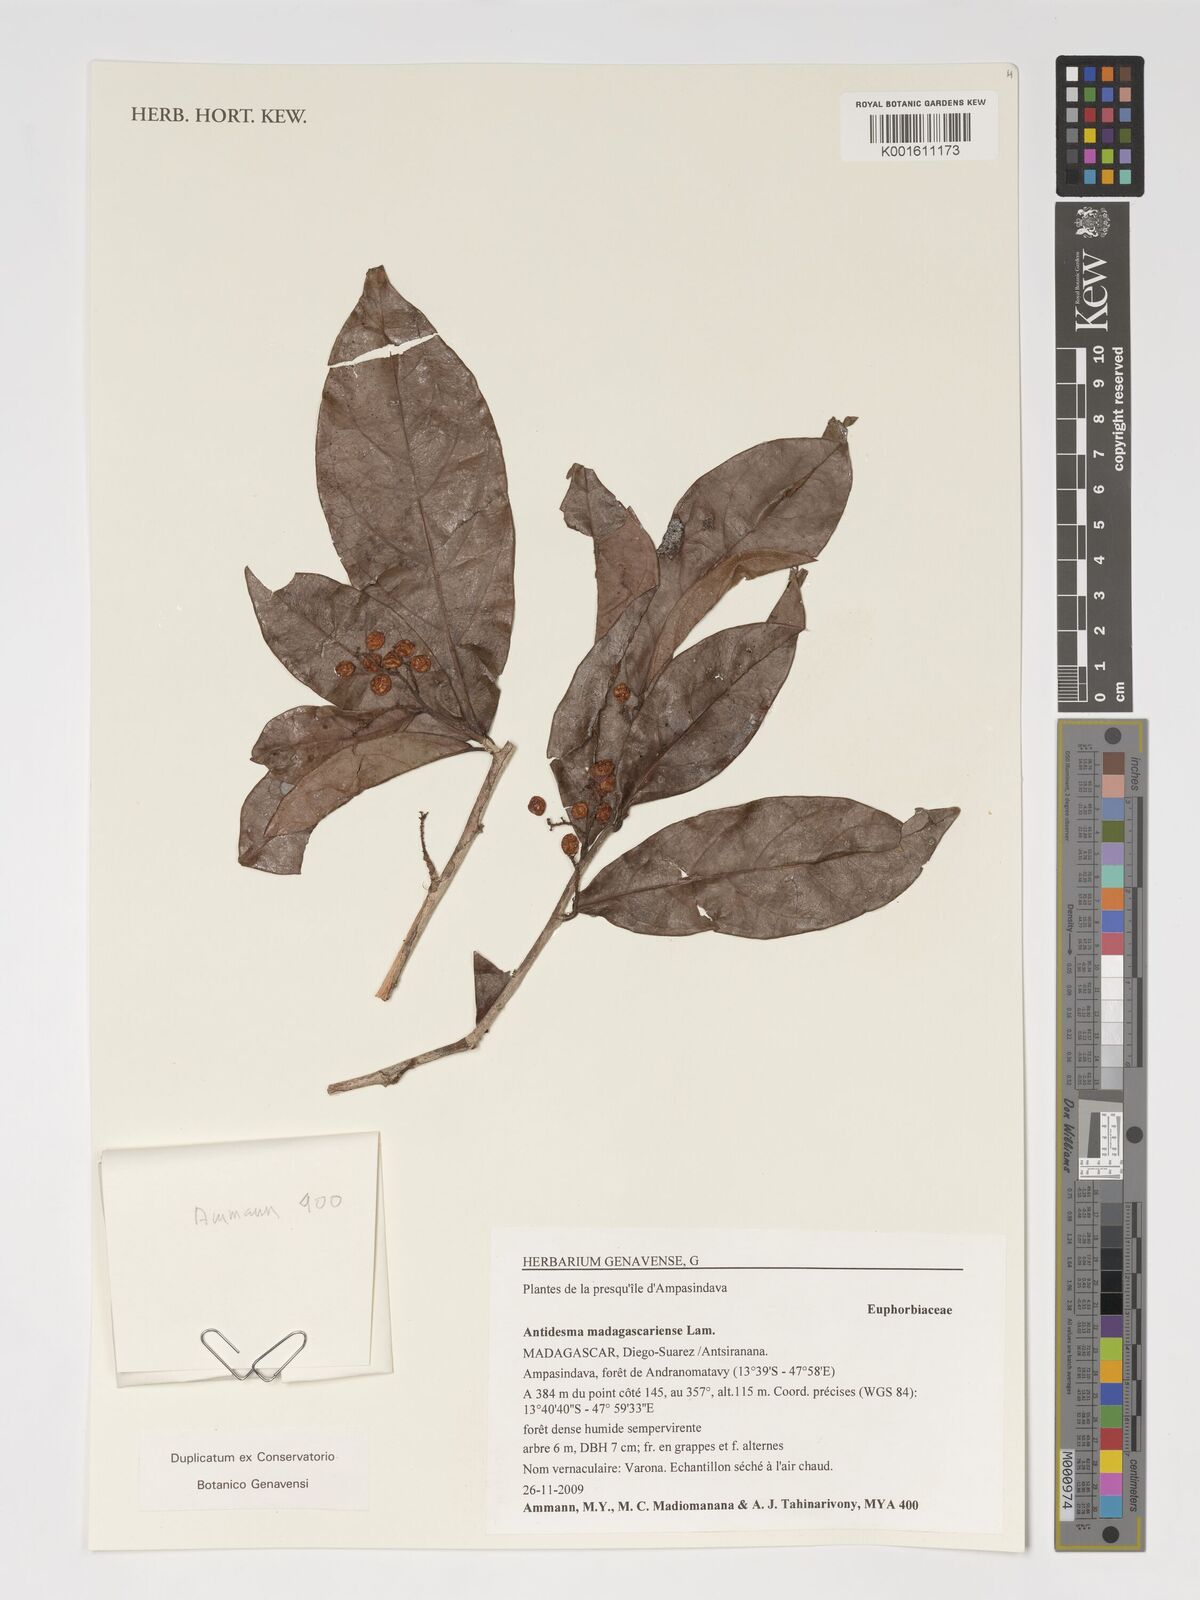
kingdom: Plantae
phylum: Tracheophyta
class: Magnoliopsida
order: Malpighiales
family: Phyllanthaceae
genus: Antidesma
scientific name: Antidesma madagascariense
